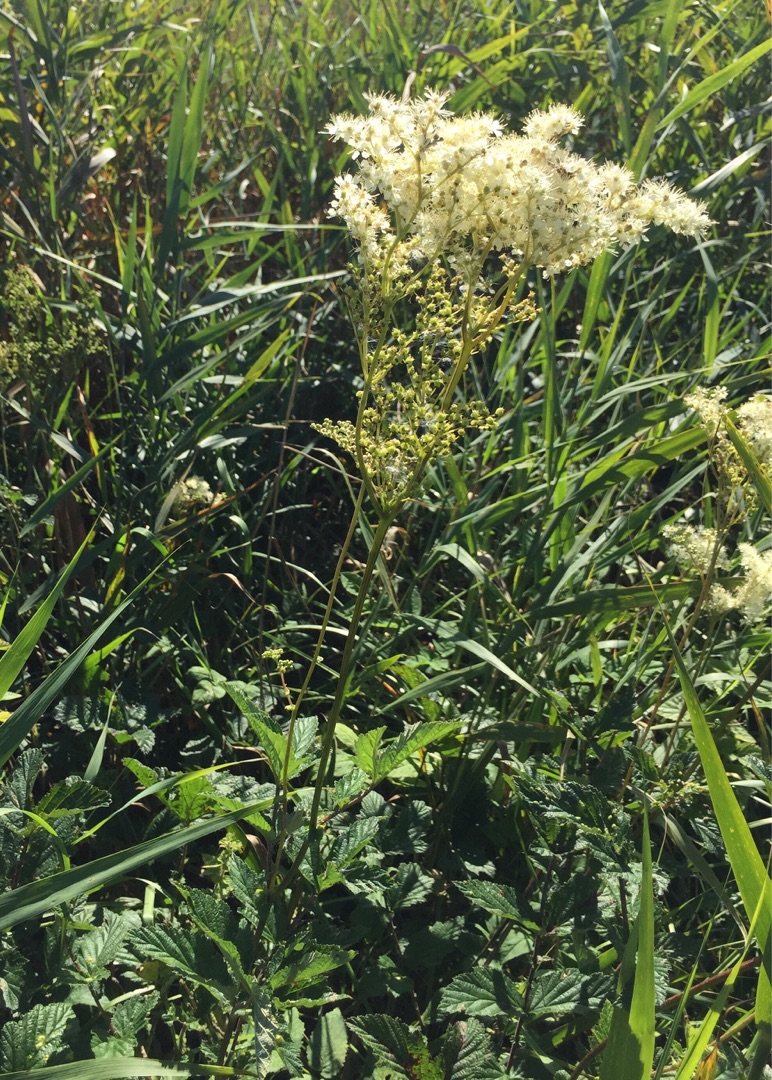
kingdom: Plantae
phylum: Tracheophyta
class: Magnoliopsida
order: Rosales
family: Rosaceae
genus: Filipendula
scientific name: Filipendula ulmaria
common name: Almindelig mjødurt
